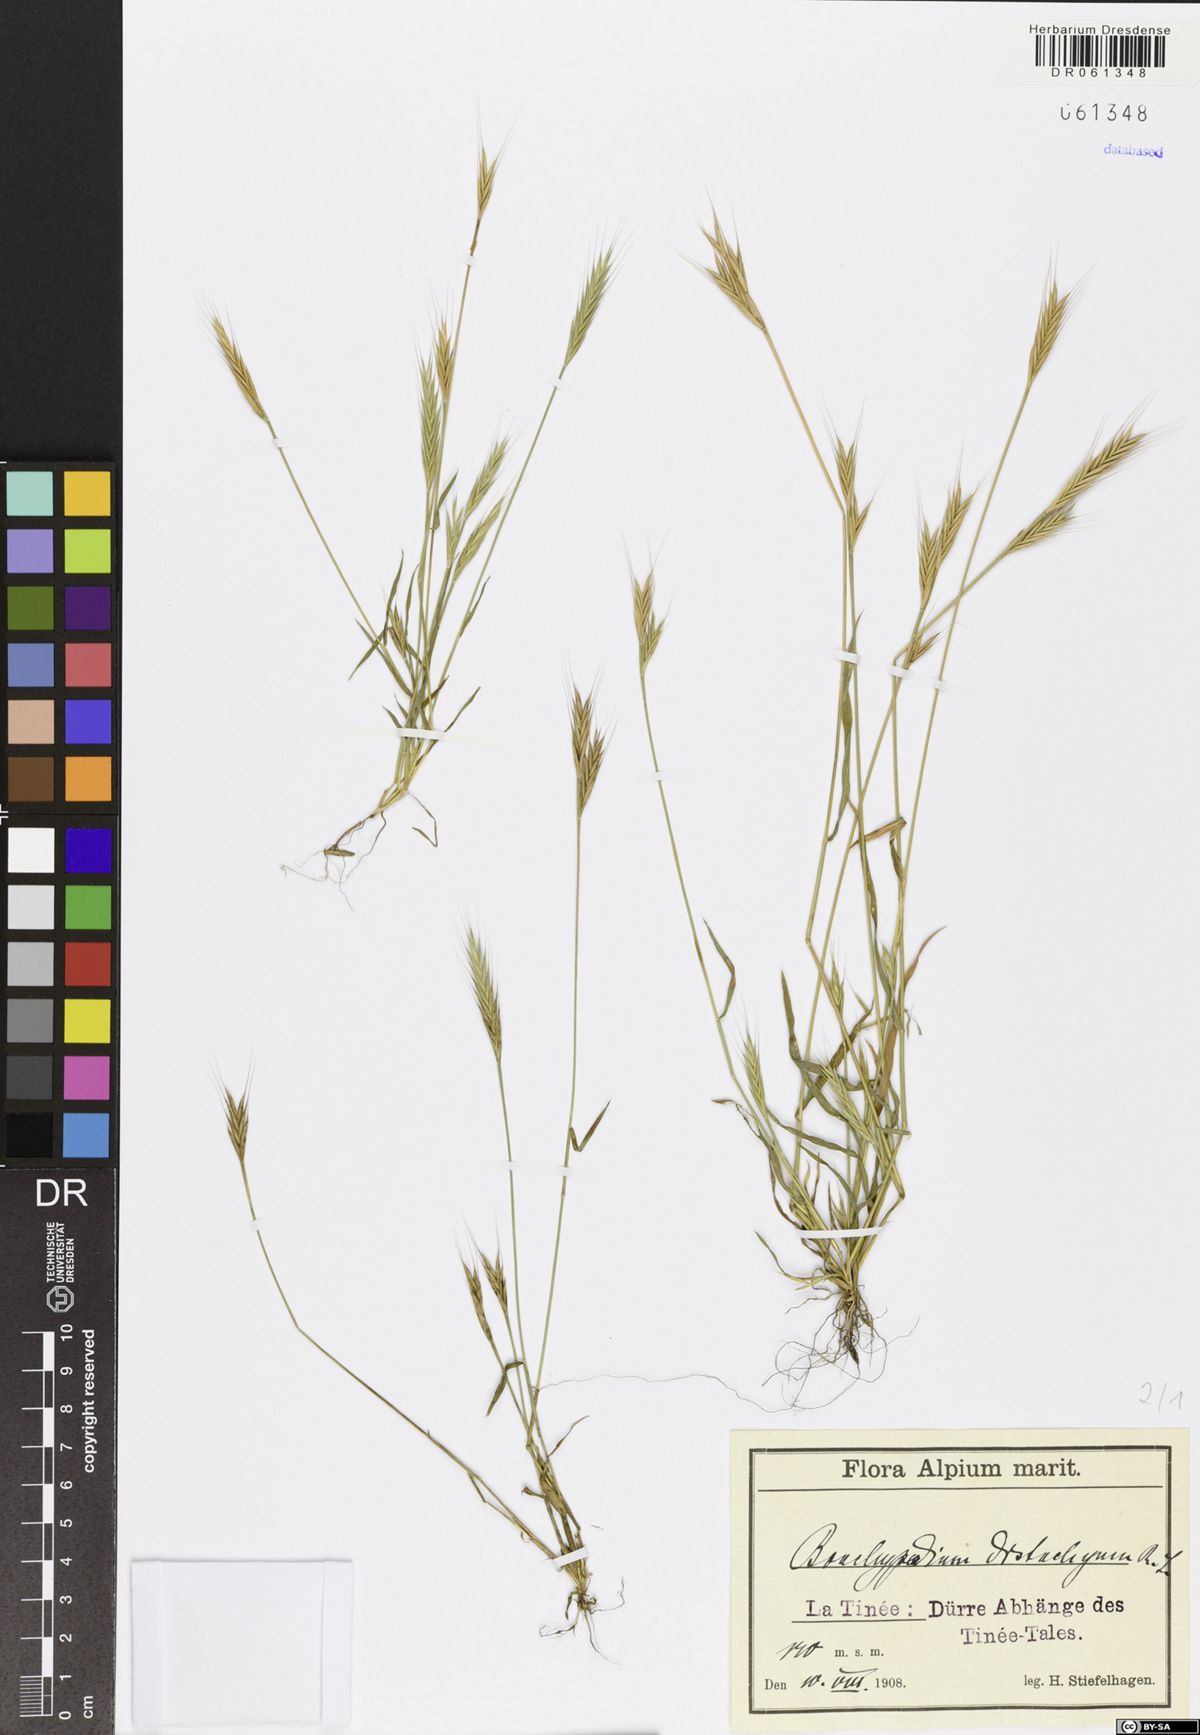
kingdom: Plantae
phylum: Tracheophyta
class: Liliopsida
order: Poales
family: Poaceae
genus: Brachypodium
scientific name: Brachypodium distachyon
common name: Stiff brome
